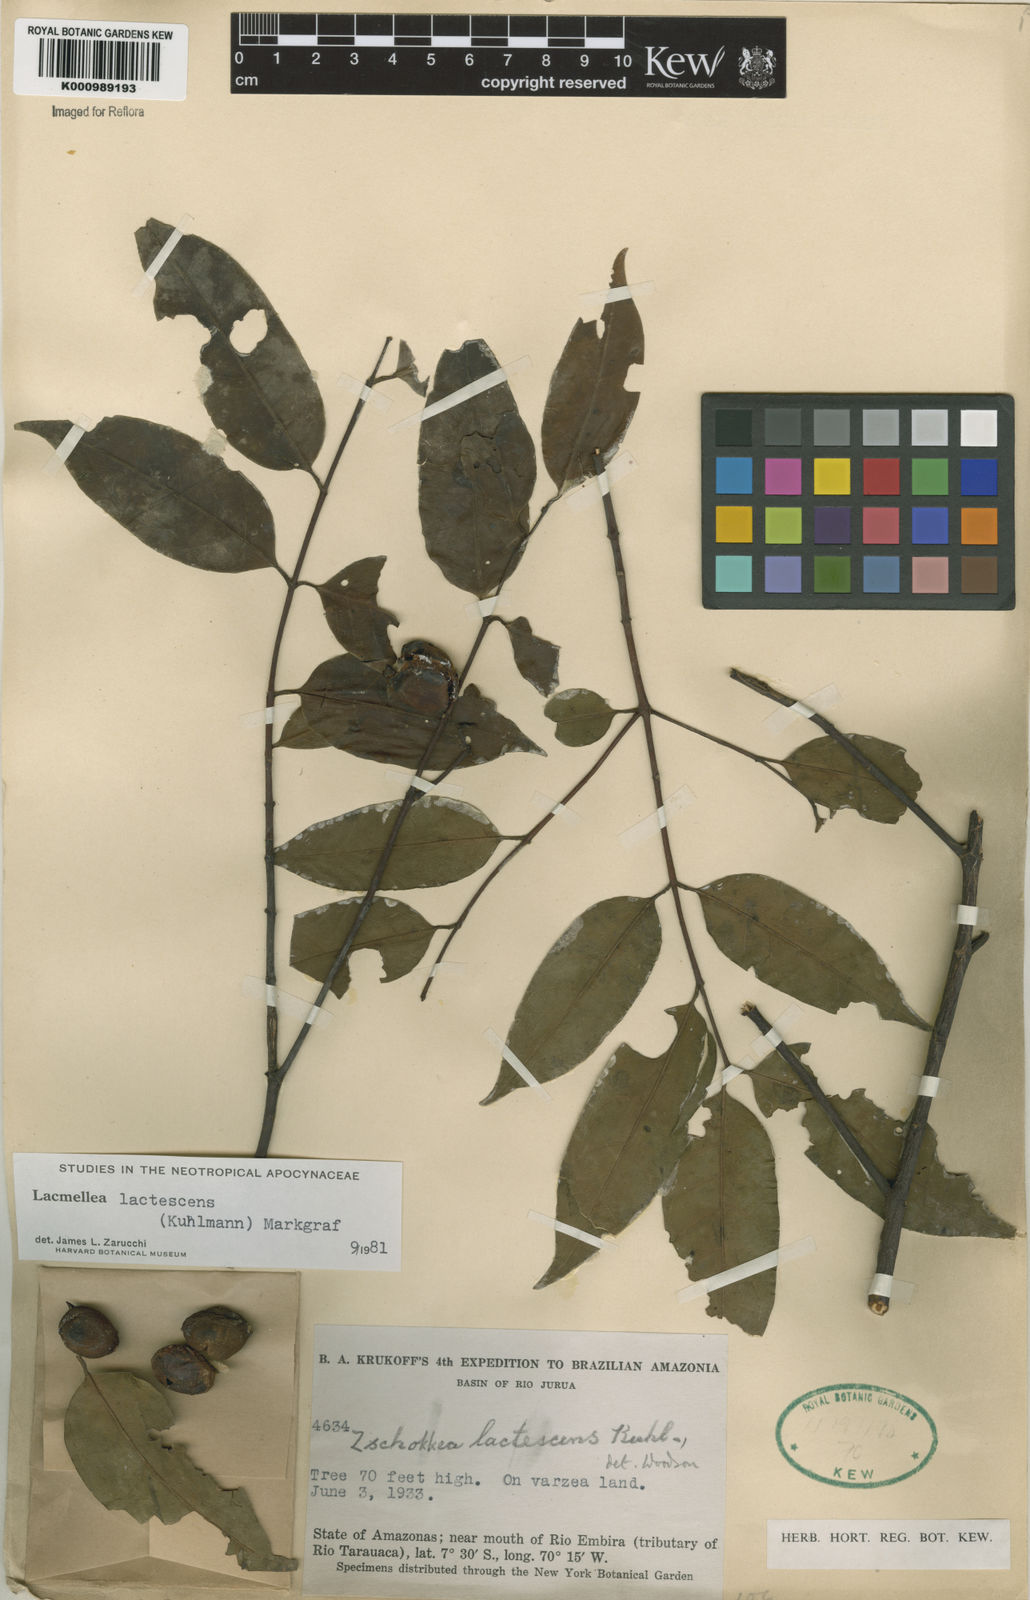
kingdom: Plantae
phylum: Tracheophyta
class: Magnoliopsida
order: Gentianales
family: Apocynaceae
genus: Lacmellea
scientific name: Lacmellea
